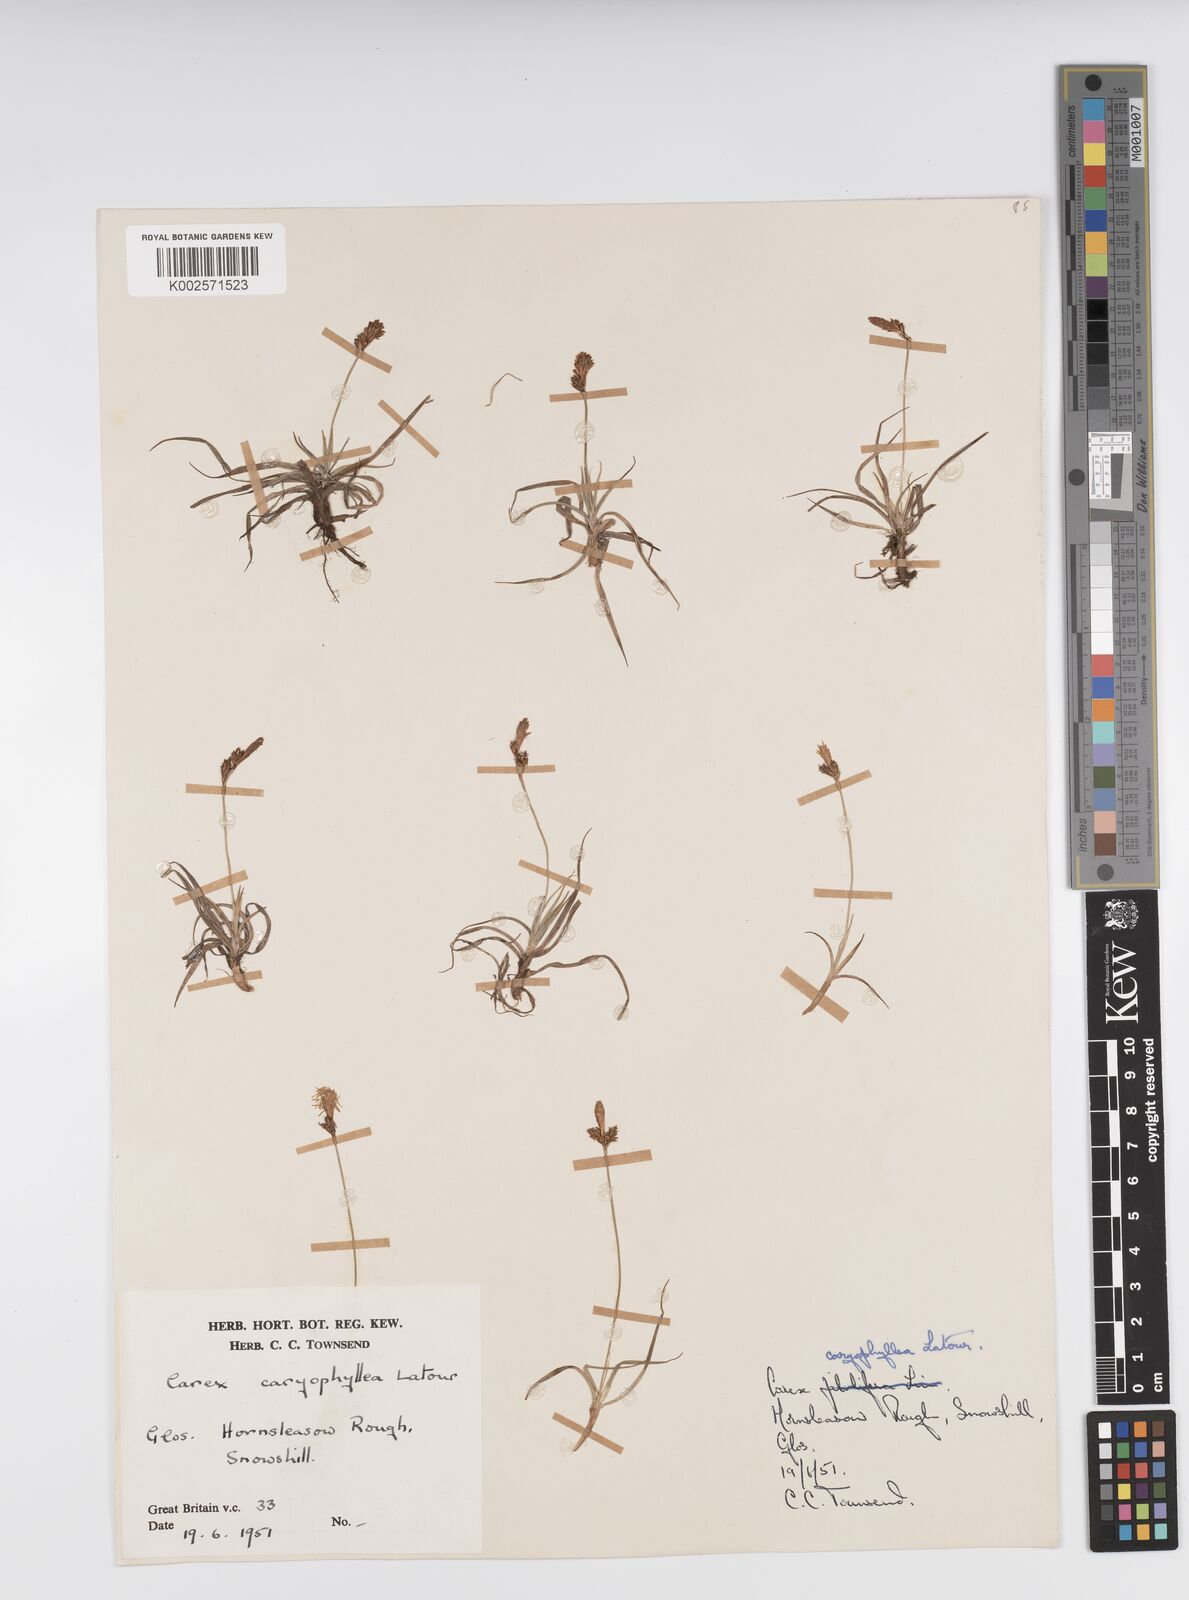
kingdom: Plantae
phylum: Tracheophyta
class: Liliopsida
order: Poales
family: Cyperaceae
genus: Carex
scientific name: Carex caryophyllea
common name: Spring sedge
